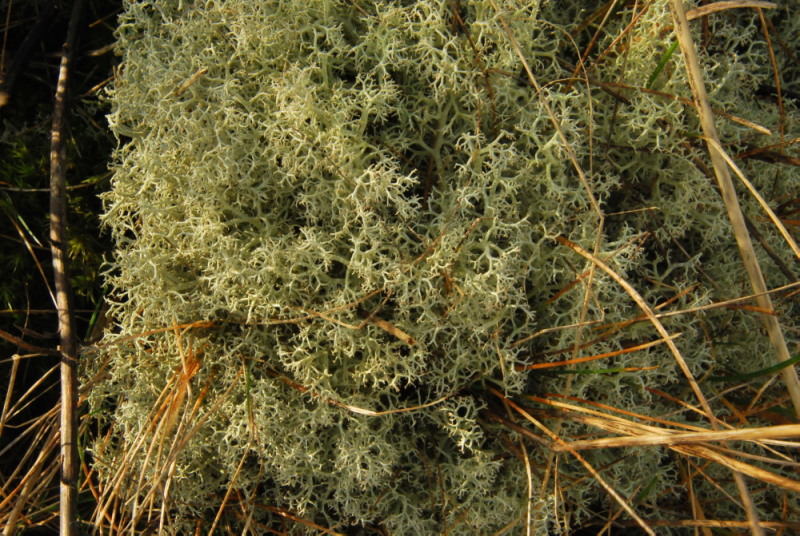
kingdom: Fungi
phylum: Ascomycota
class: Lecanoromycetes
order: Lecanorales
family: Cladoniaceae
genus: Cladonia
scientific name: Cladonia portentosa
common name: hede-rensdyrlav
